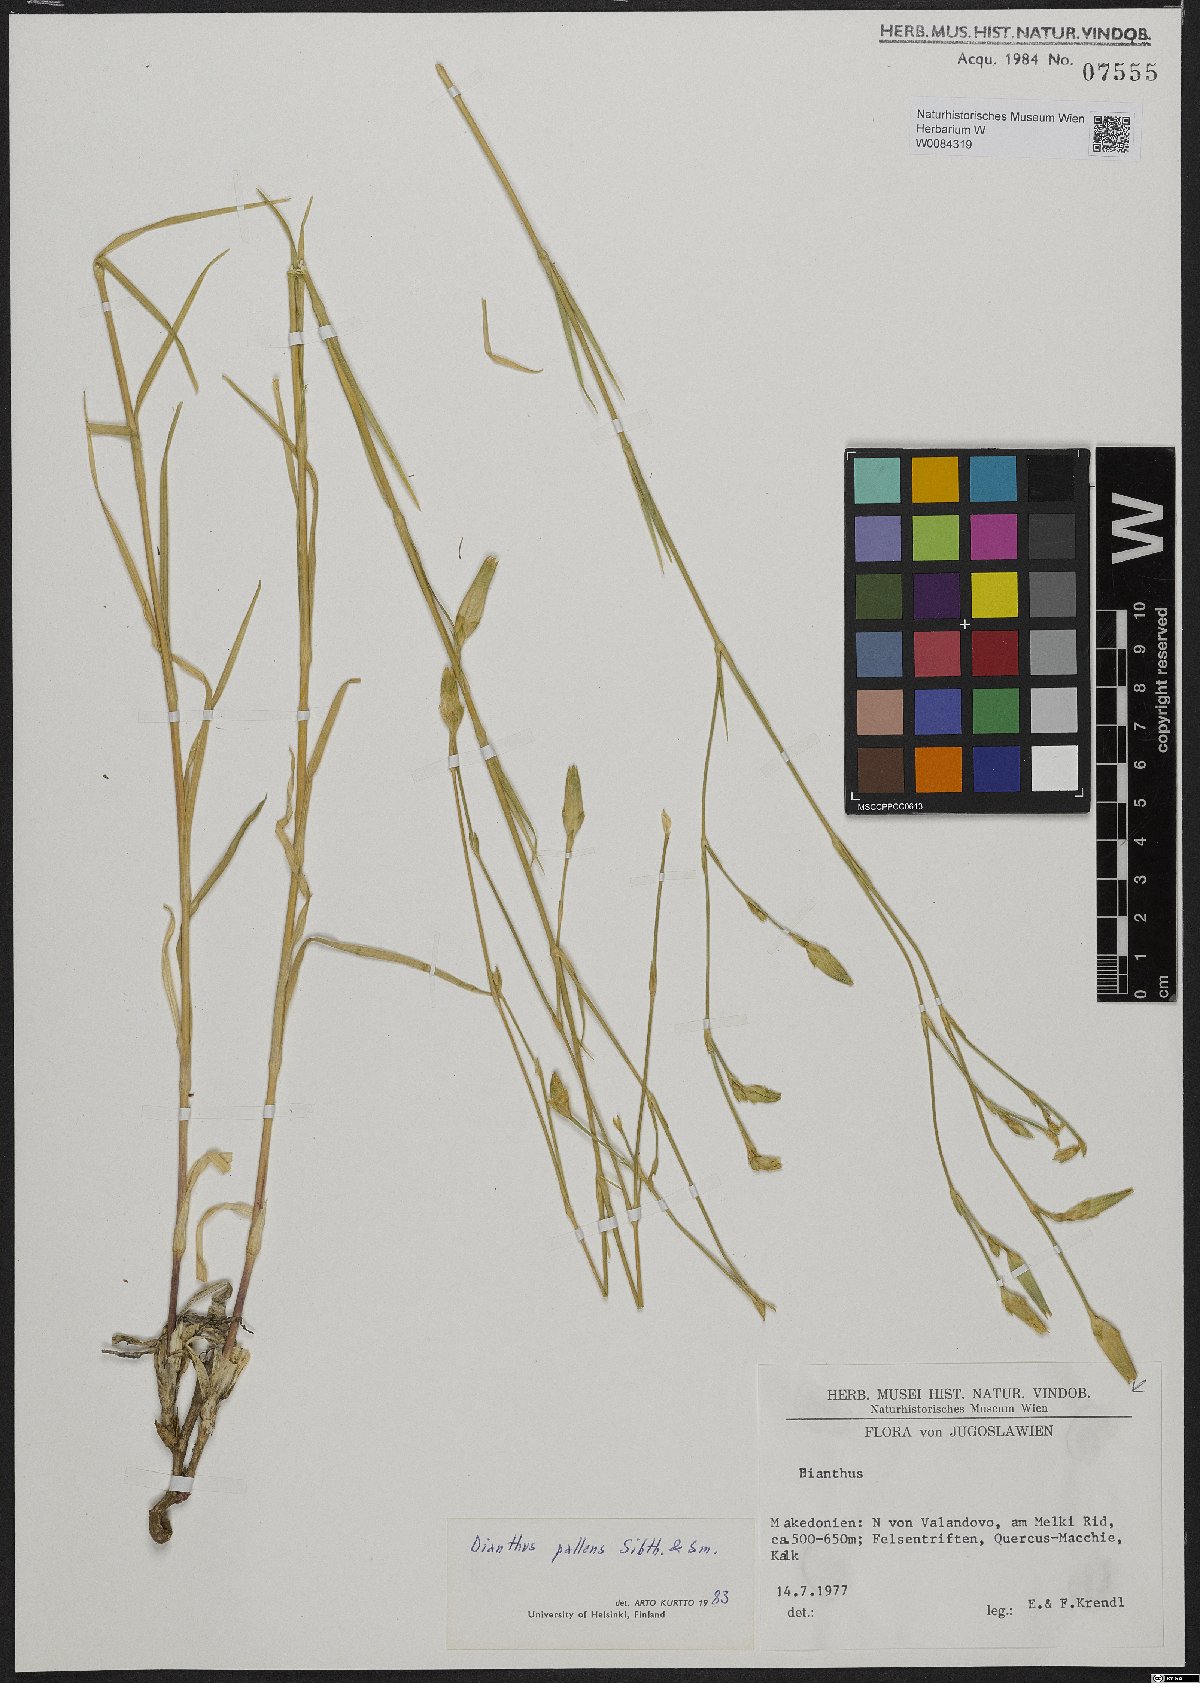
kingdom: Plantae
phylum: Tracheophyta
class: Magnoliopsida
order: Caryophyllales
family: Caryophyllaceae
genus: Dianthus
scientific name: Dianthus monadelphus
